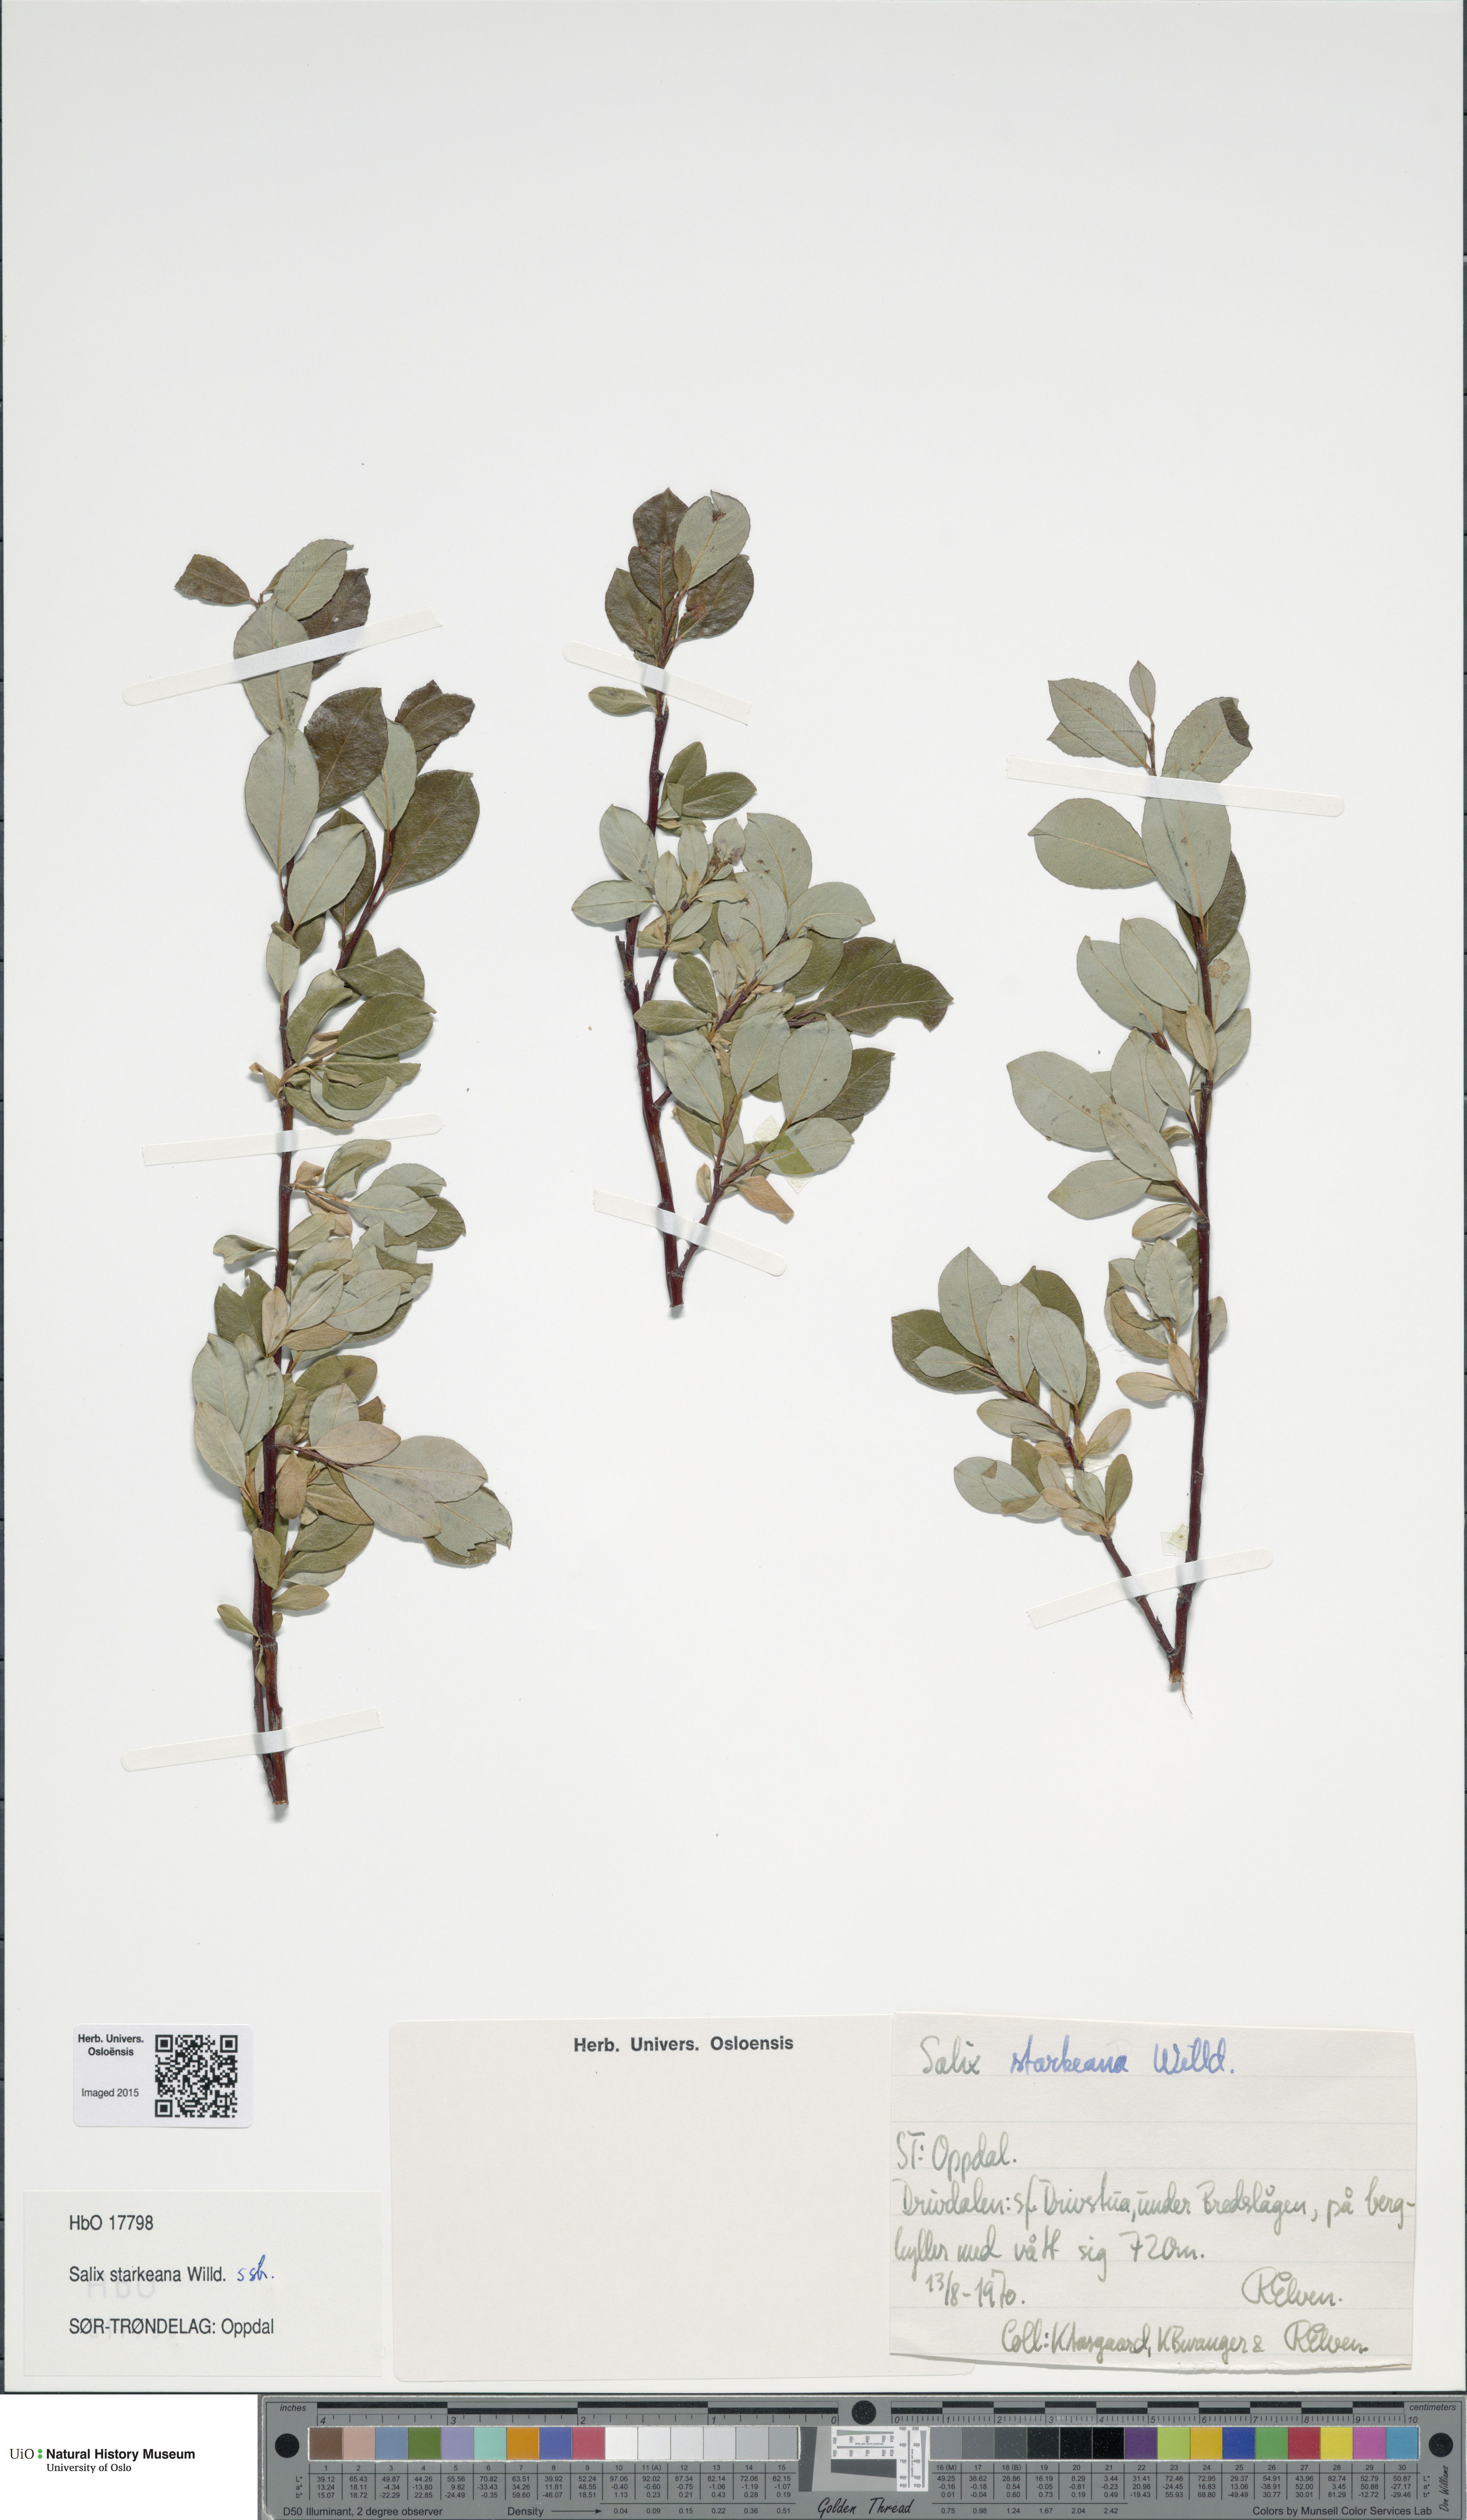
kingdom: Plantae
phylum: Tracheophyta
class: Magnoliopsida
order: Malpighiales
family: Salicaceae
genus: Salix
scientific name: Salix starkeana
